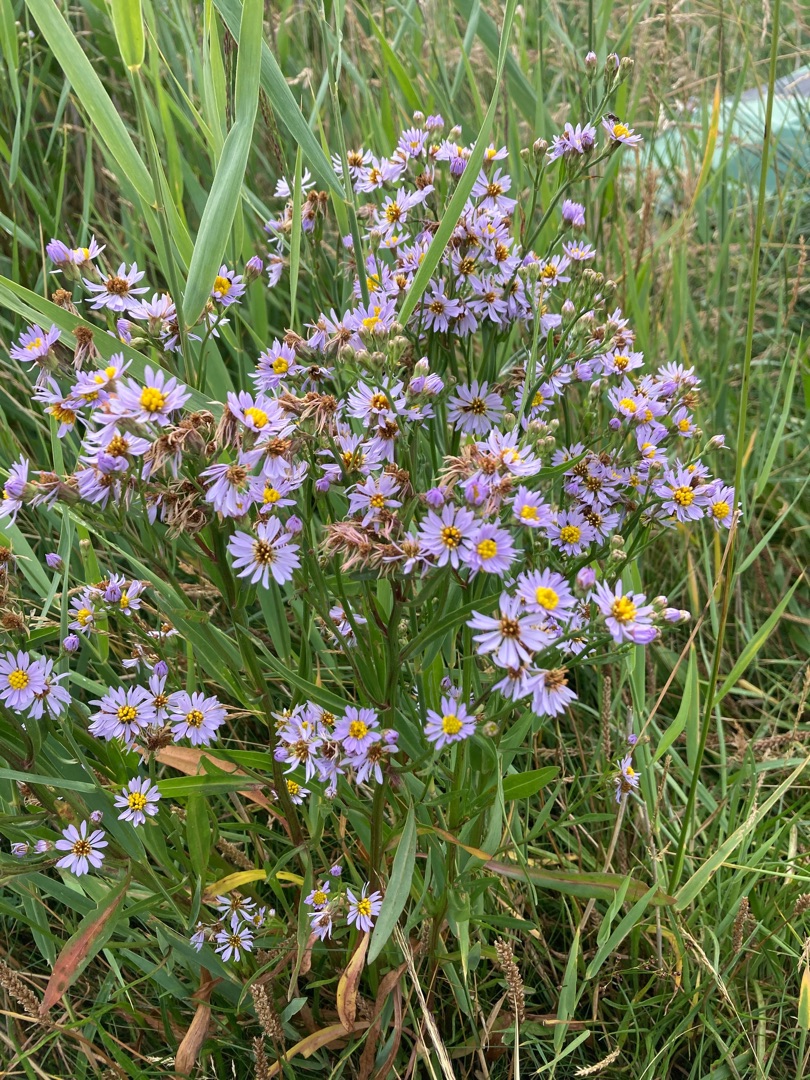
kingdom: Plantae
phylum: Tracheophyta
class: Magnoliopsida
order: Asterales
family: Asteraceae
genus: Tripolium
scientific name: Tripolium pannonicum
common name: Strandasters
